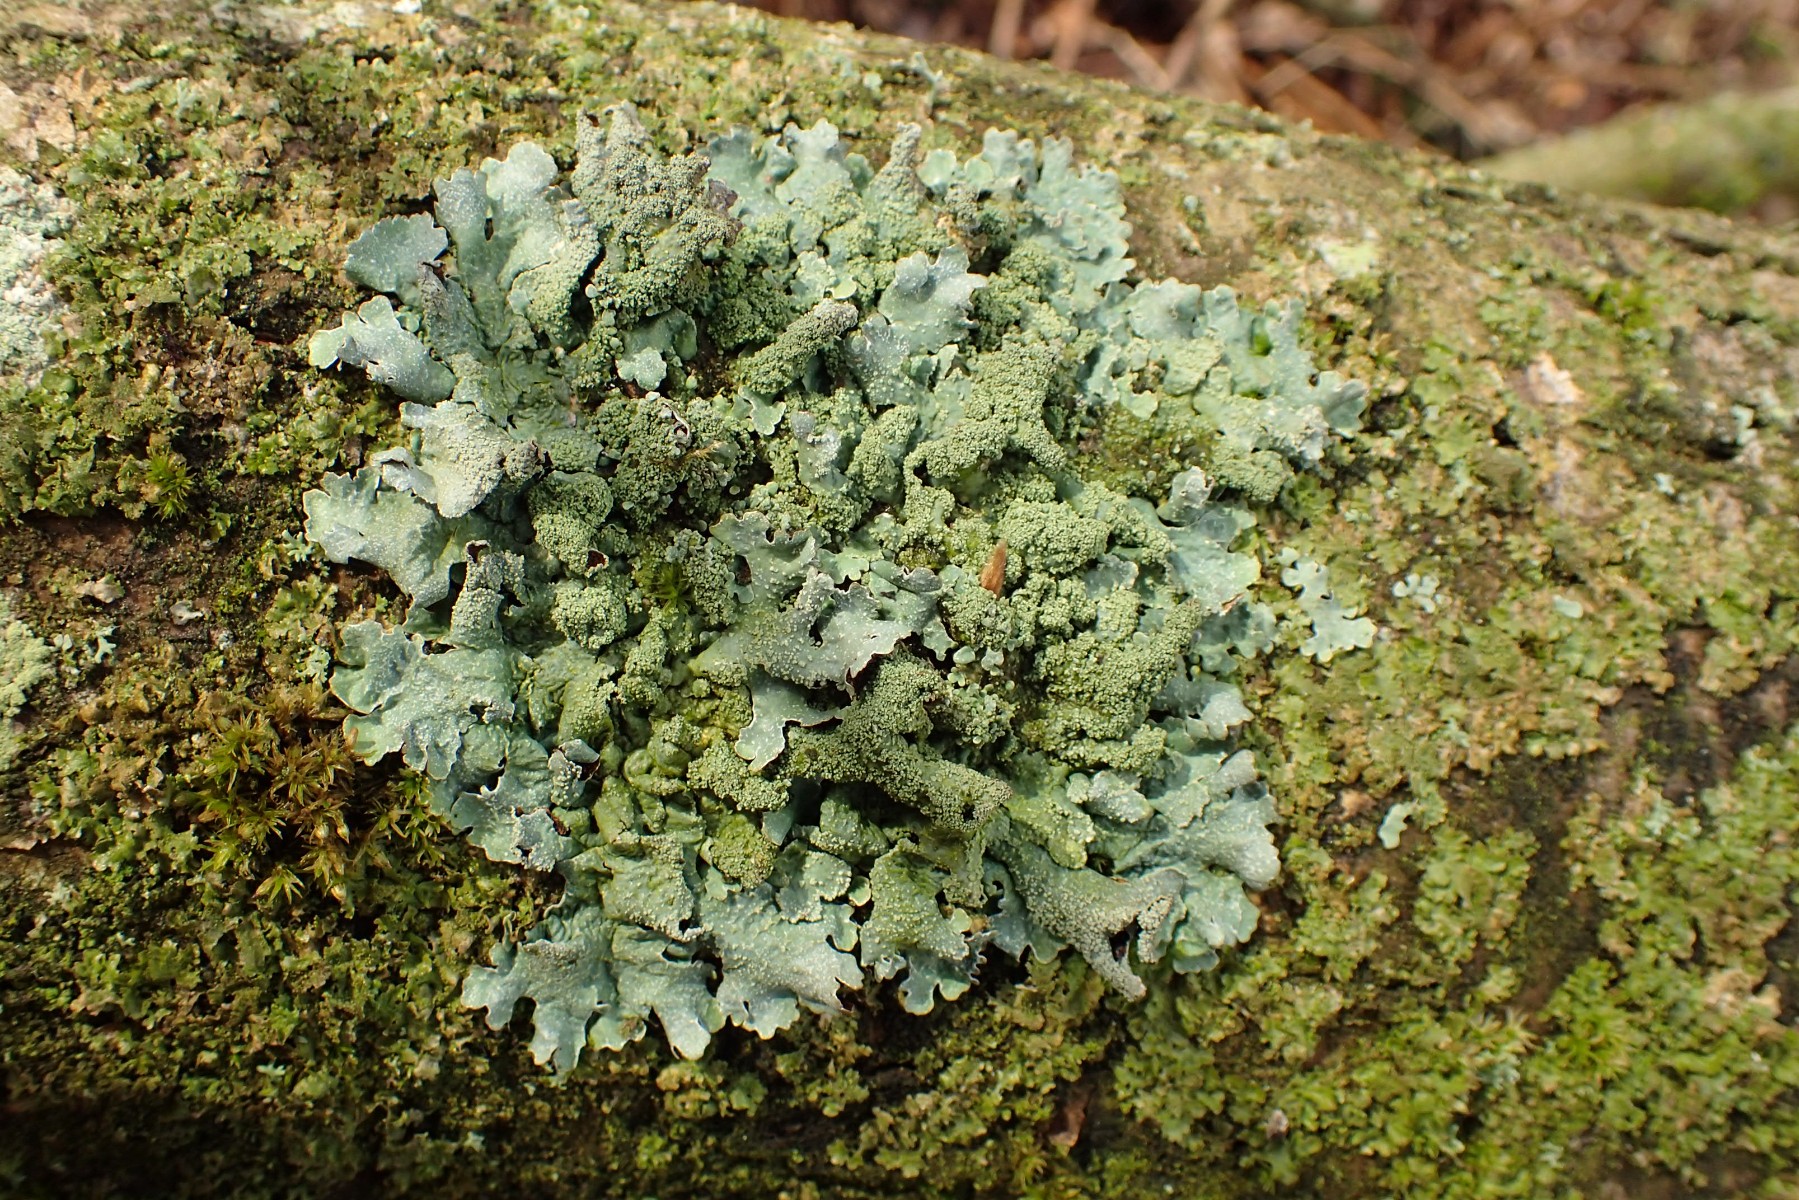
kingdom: Fungi
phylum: Ascomycota
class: Lecanoromycetes
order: Lecanorales
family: Parmeliaceae
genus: Parmelia
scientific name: Parmelia submontana
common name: langlobet skållav
